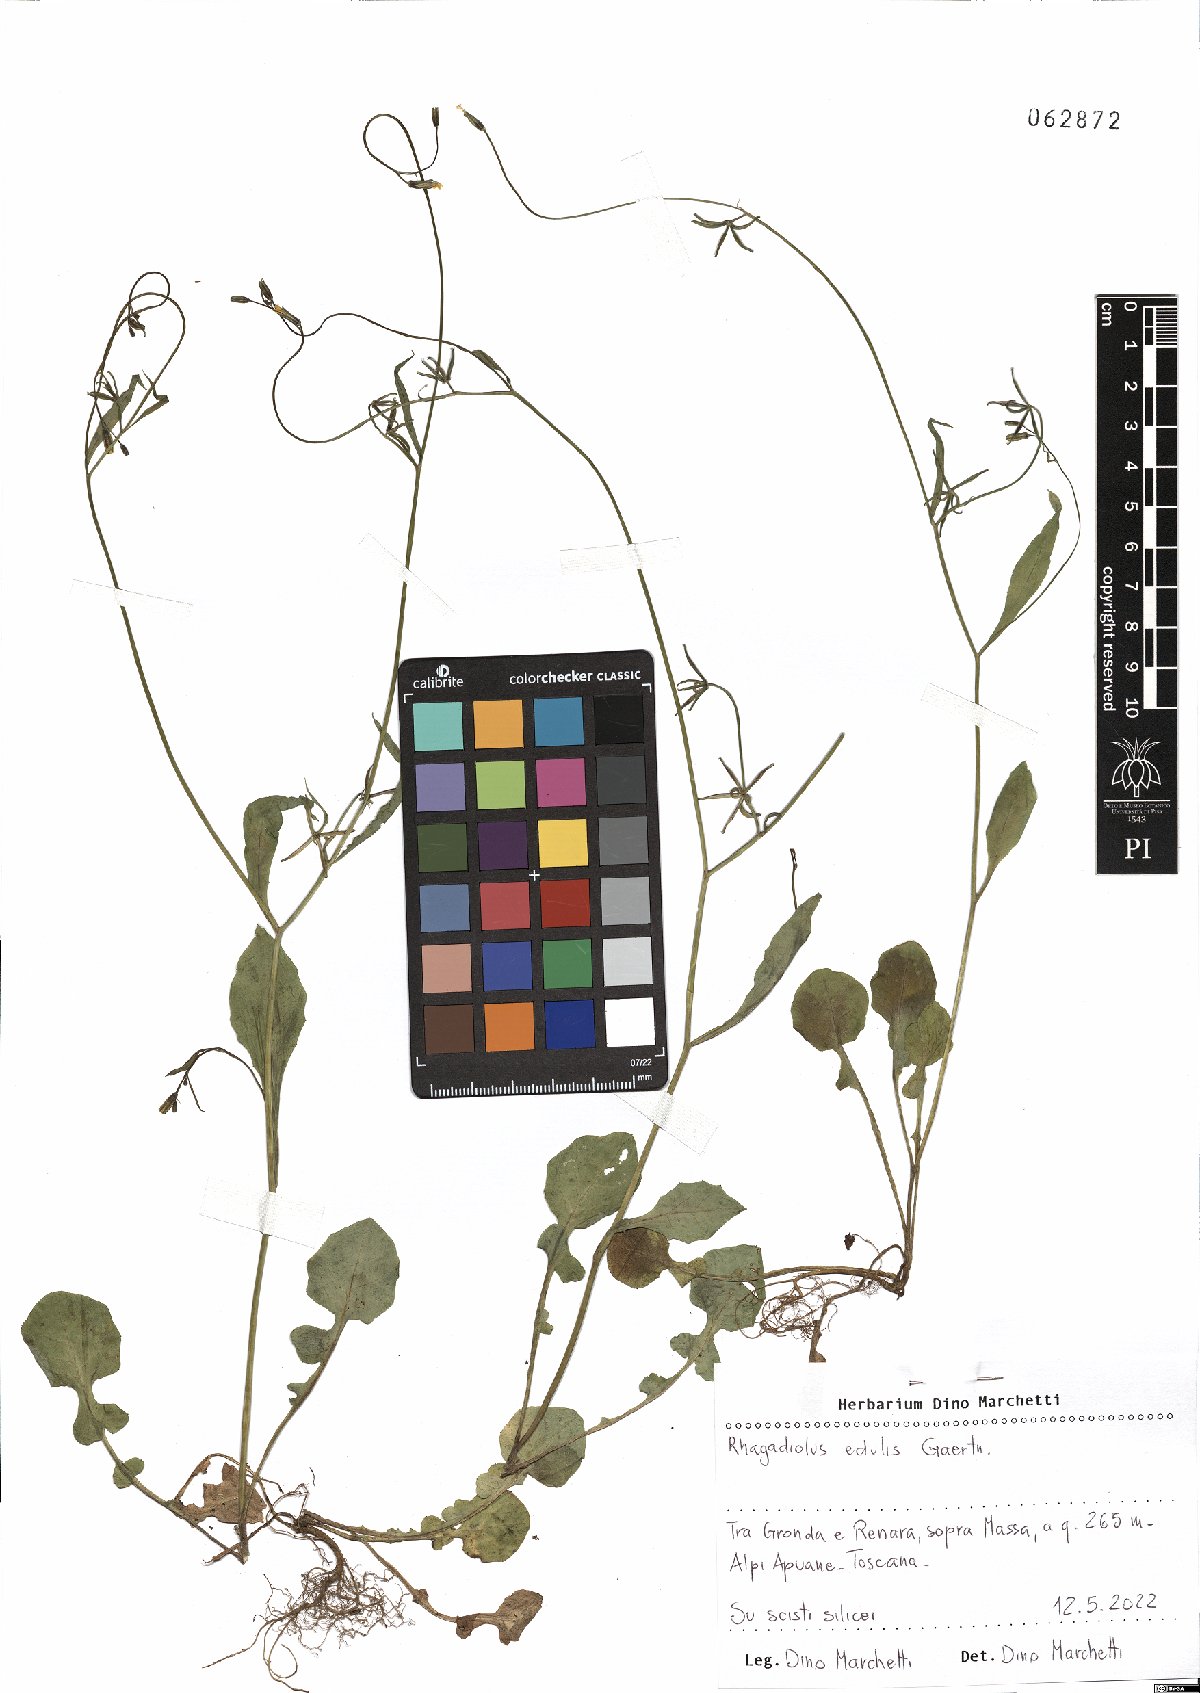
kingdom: Plantae
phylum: Tracheophyta
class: Magnoliopsida
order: Asterales
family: Asteraceae
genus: Rhagadiolus
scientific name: Rhagadiolus edulis
